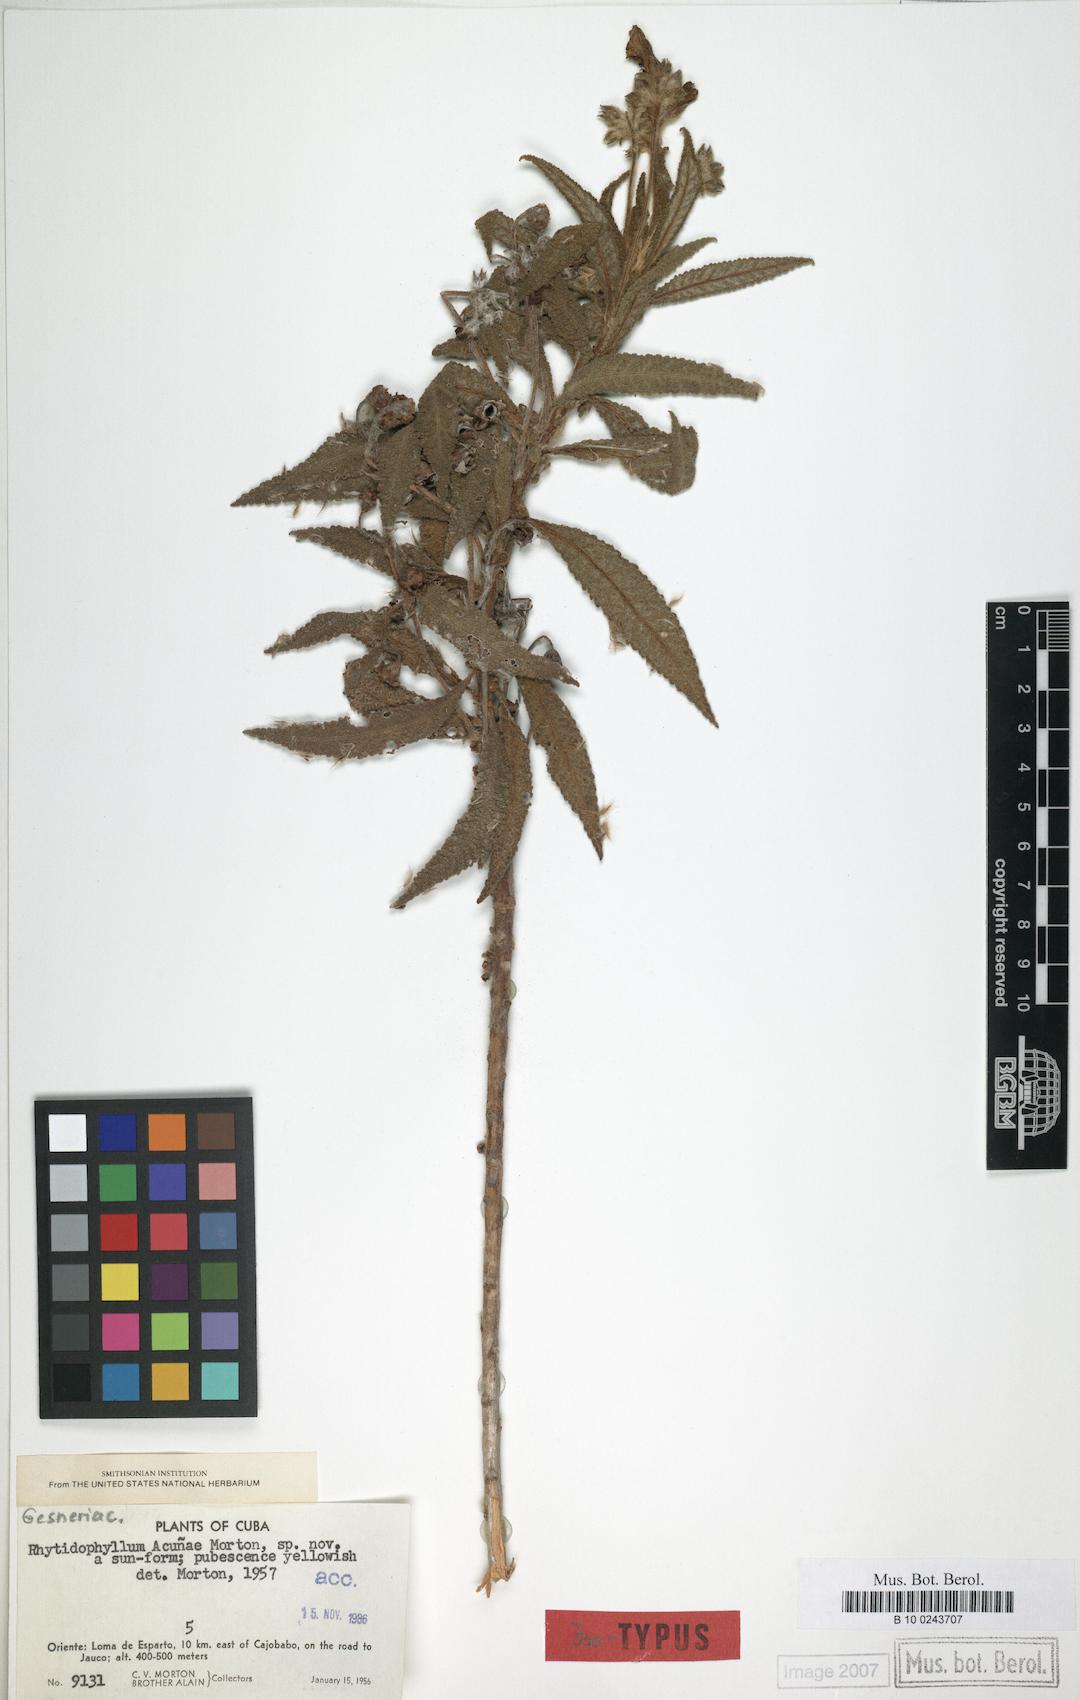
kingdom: Plantae
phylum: Tracheophyta
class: Magnoliopsida
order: Lamiales
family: Gesneriaceae
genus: Rhytidophyllum
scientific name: Rhytidophyllum acunae
